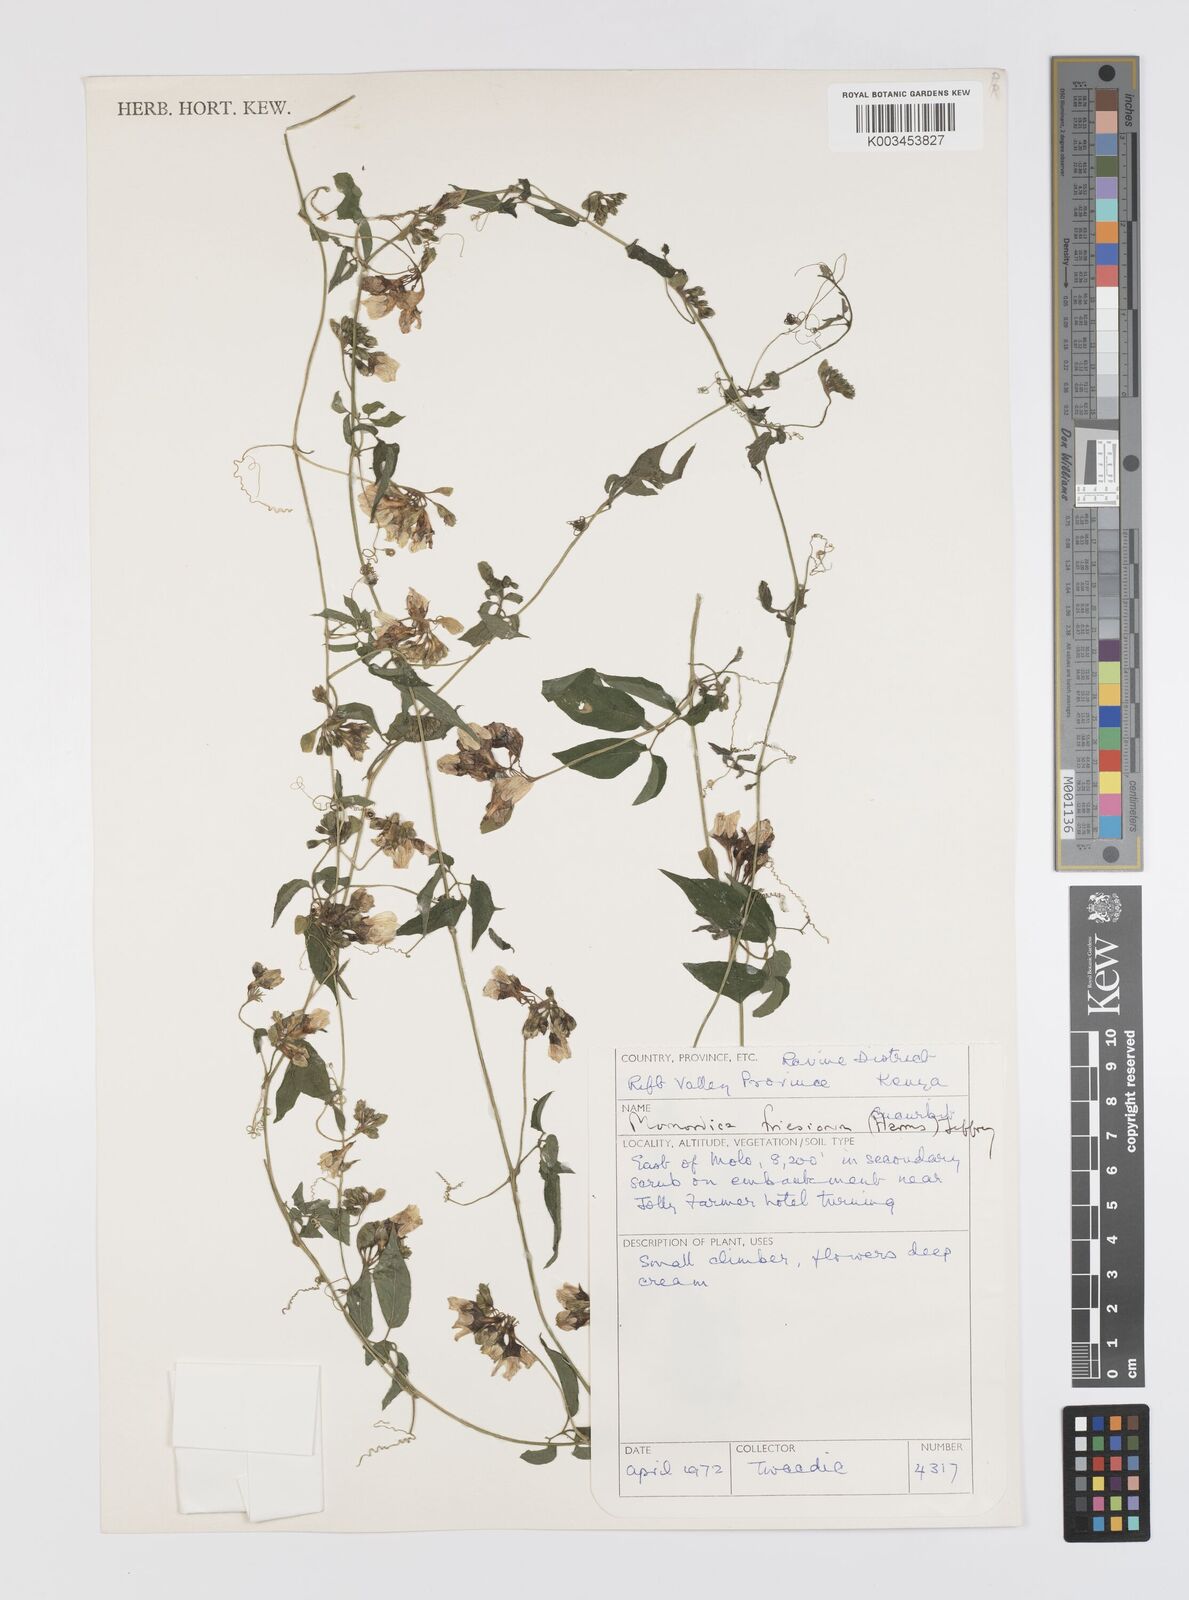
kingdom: Plantae
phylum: Tracheophyta
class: Magnoliopsida
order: Cucurbitales
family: Cucurbitaceae
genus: Momordica
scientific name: Momordica friesiorum
